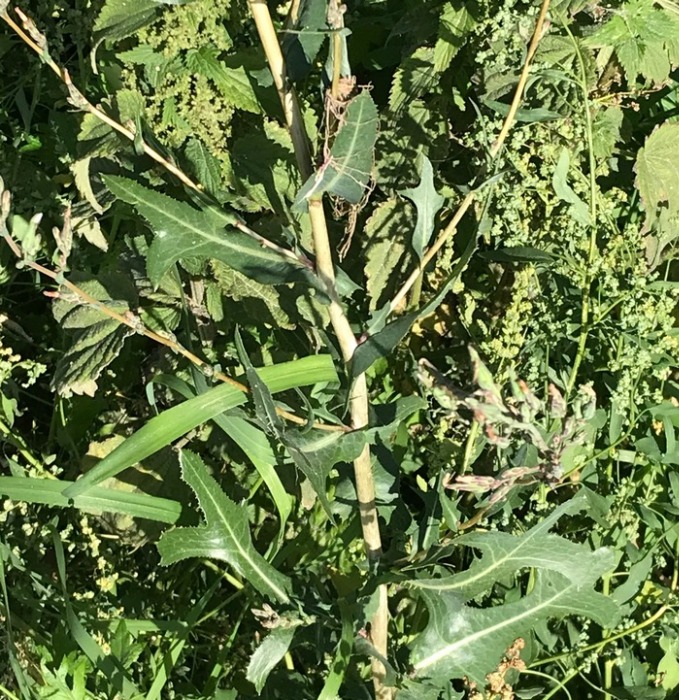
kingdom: Plantae
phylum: Tracheophyta
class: Magnoliopsida
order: Asterales
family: Asteraceae
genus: Lactuca
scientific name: Lactuca serriola
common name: Tornet salat
